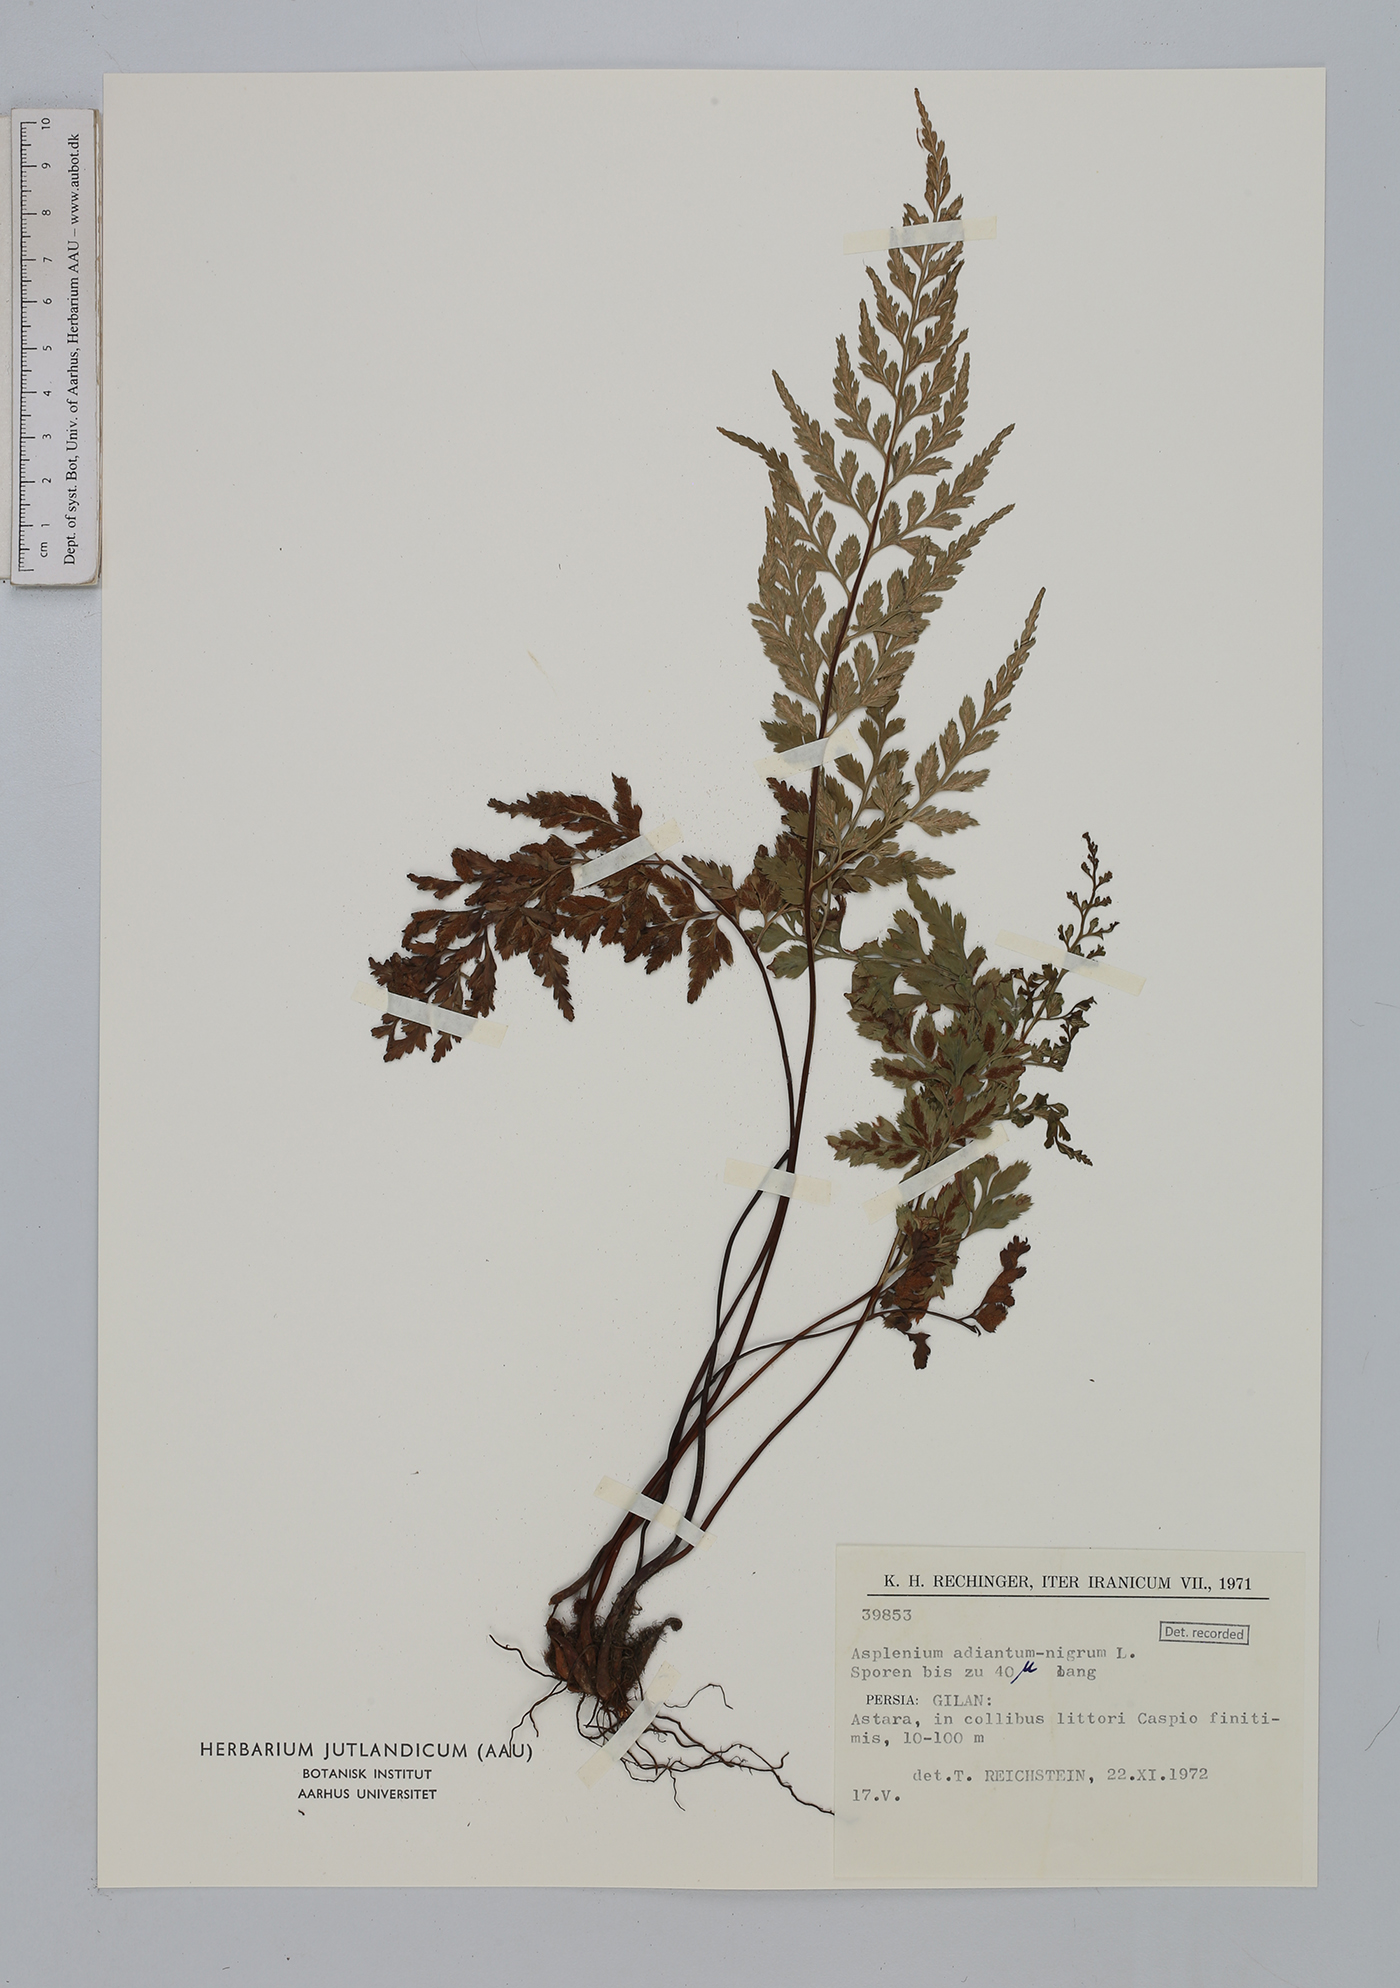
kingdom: Plantae
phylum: Tracheophyta
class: Polypodiopsida
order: Polypodiales
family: Aspleniaceae
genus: Asplenium
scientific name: Asplenium adiantum-nigrum
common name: Black spleenwort
